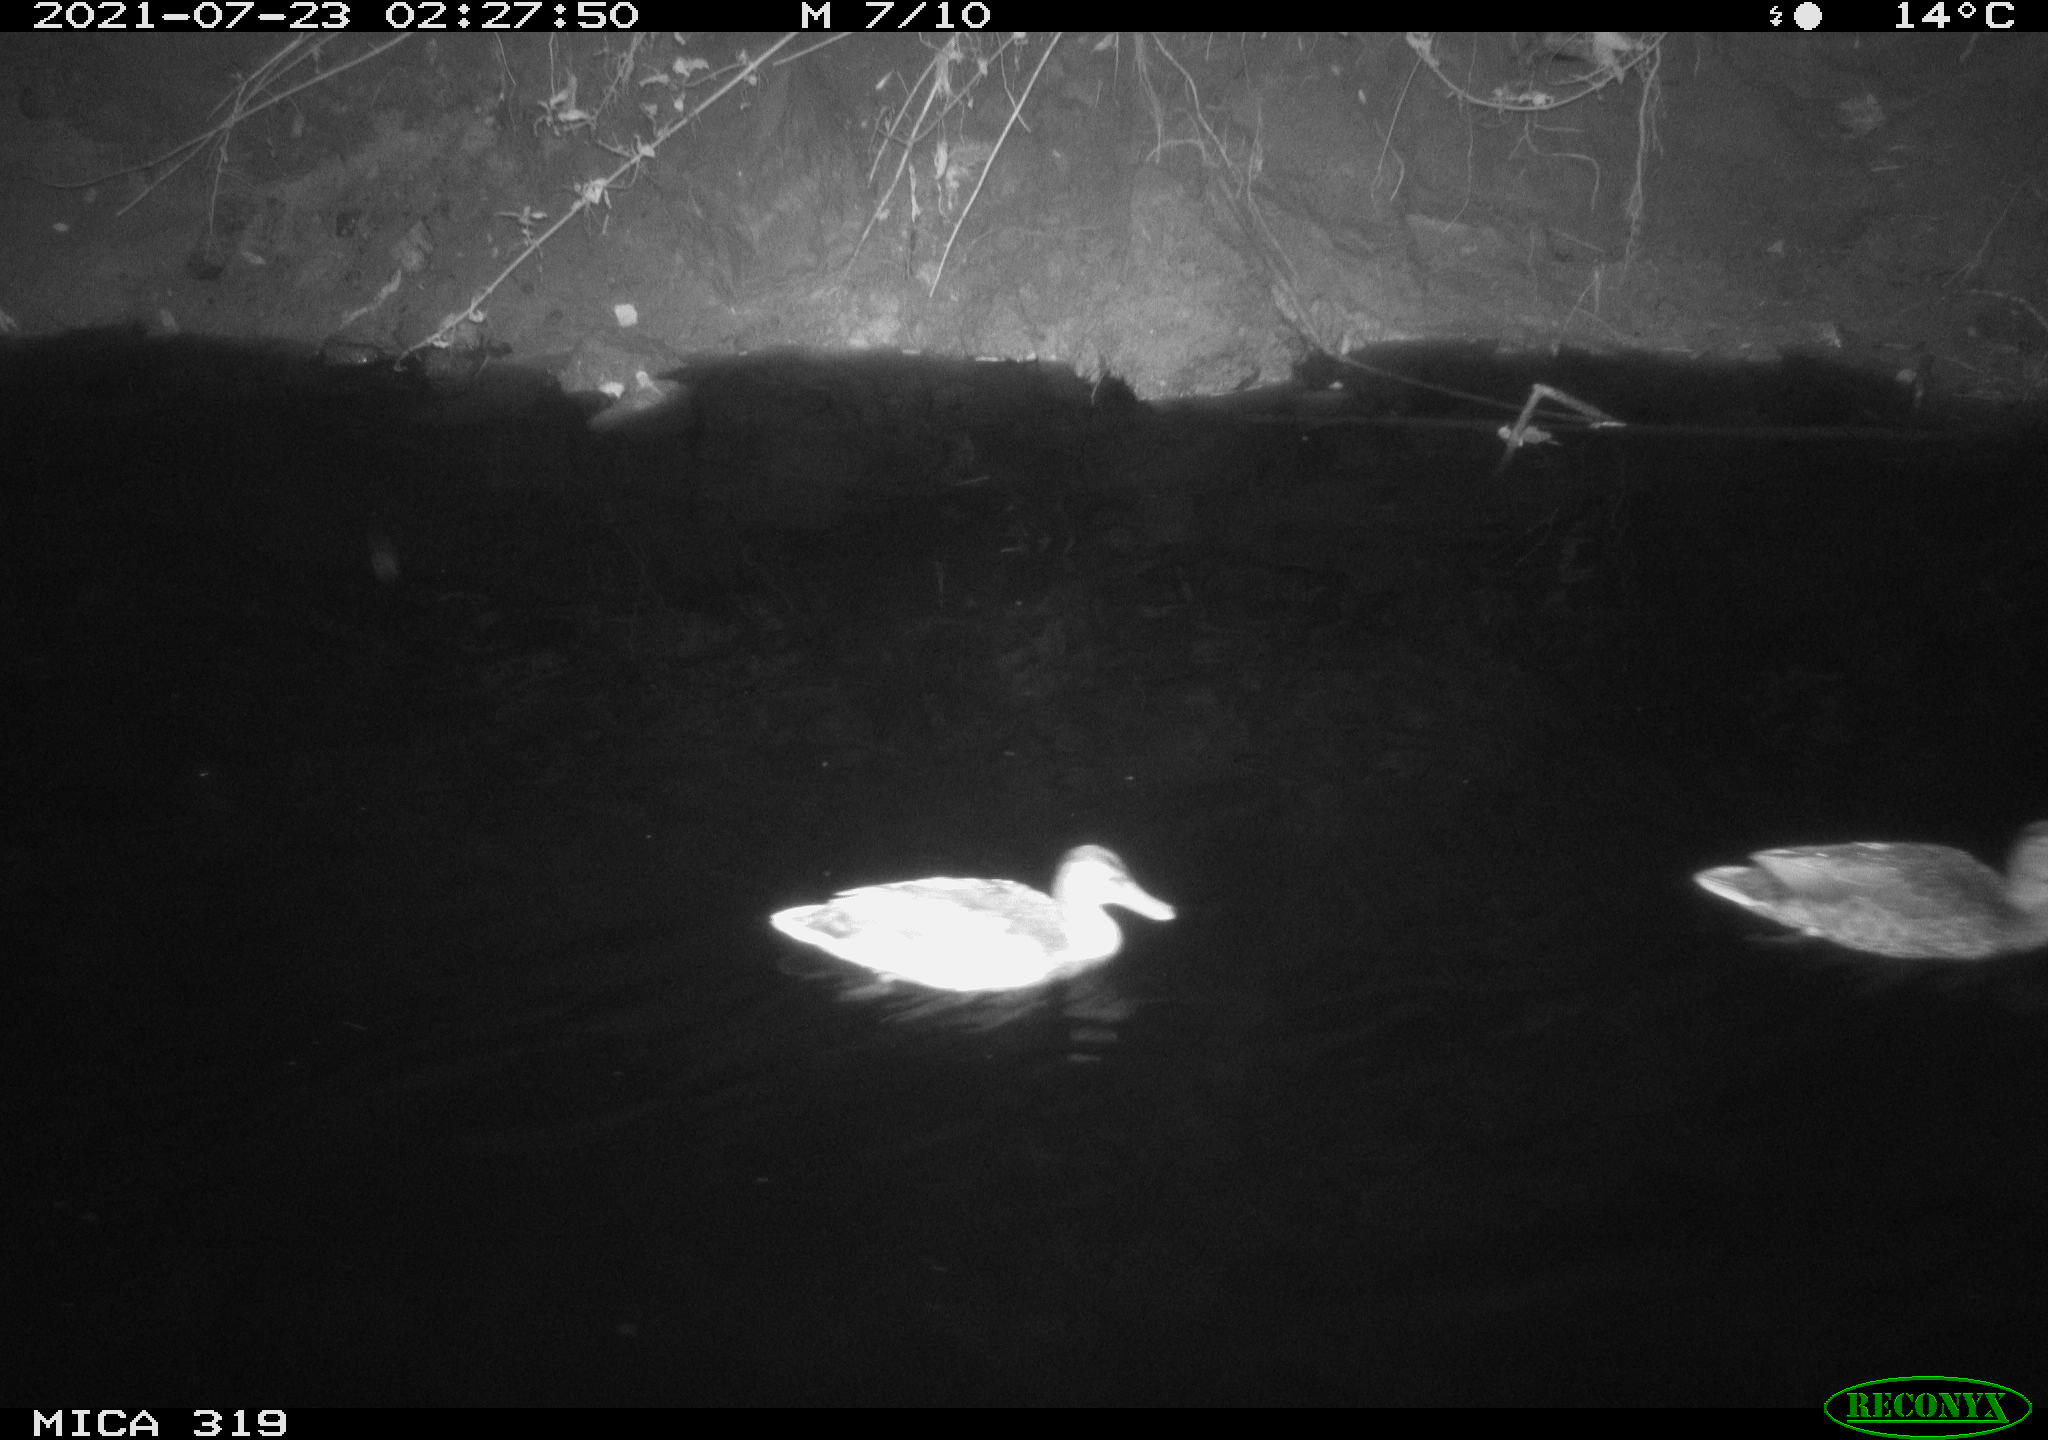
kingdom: Animalia
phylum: Chordata
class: Aves
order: Anseriformes
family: Anatidae
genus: Anas
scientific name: Anas platyrhynchos
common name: Mallard
